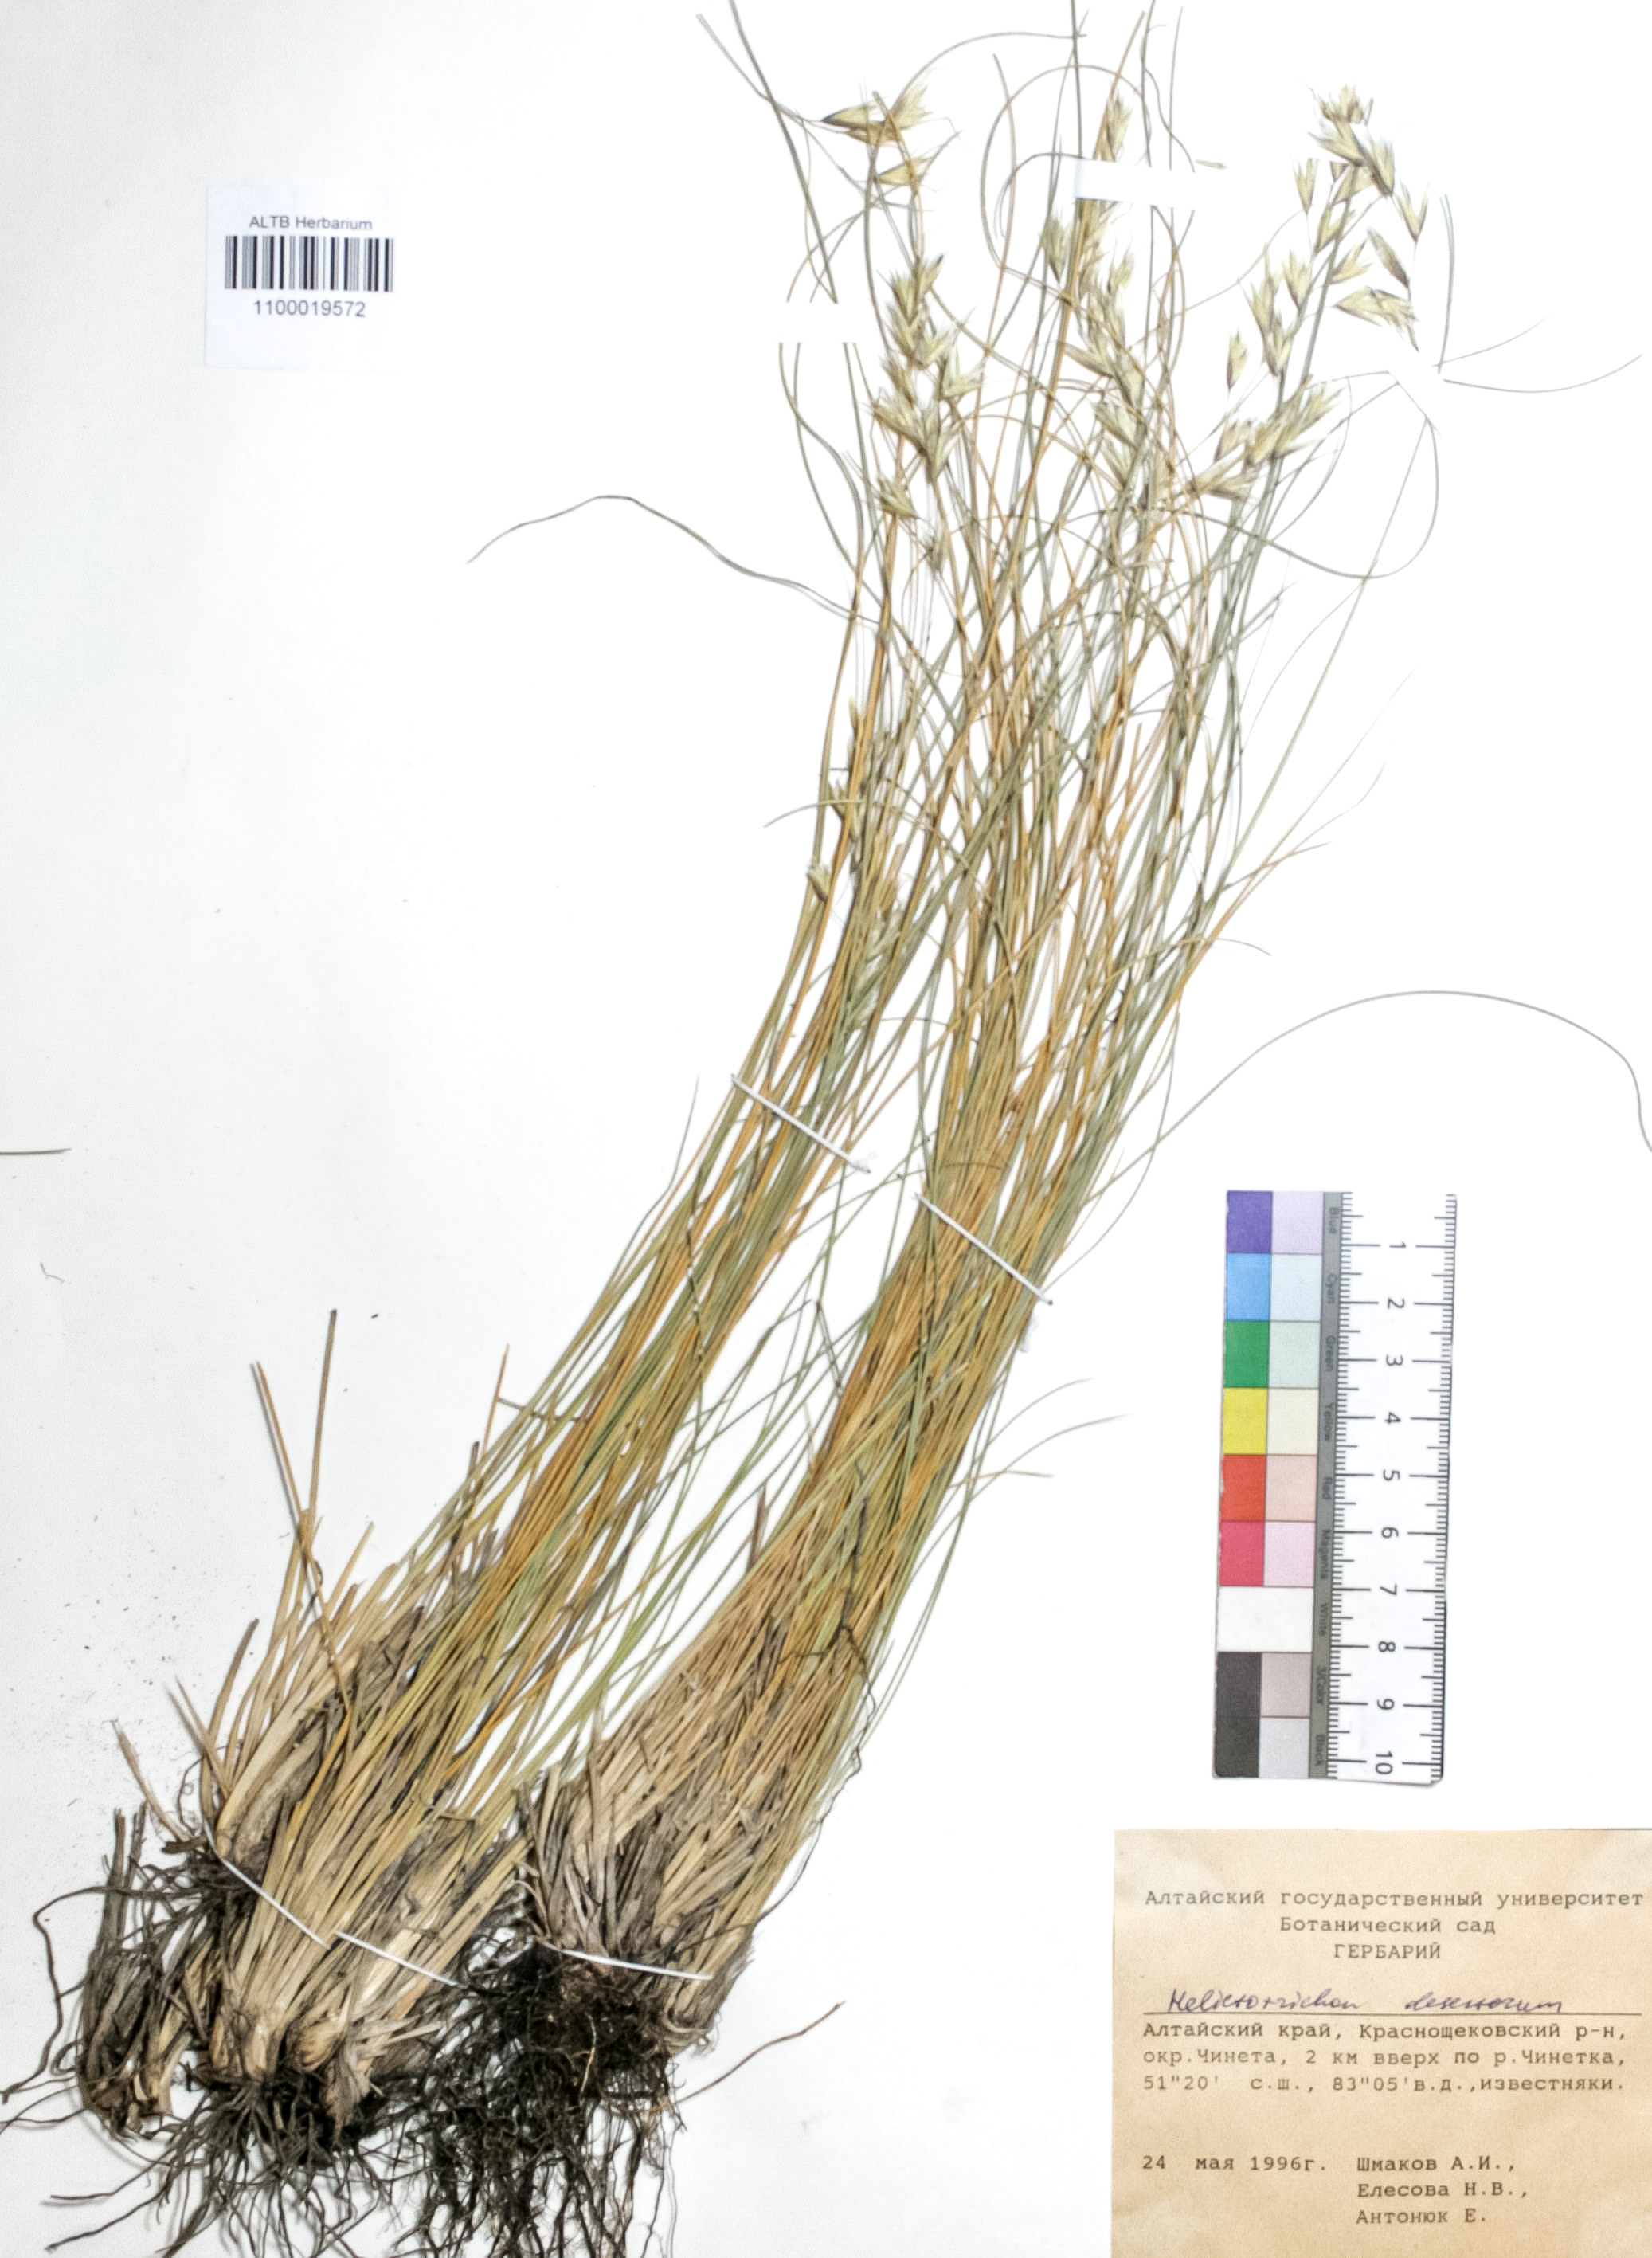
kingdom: Plantae
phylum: Tracheophyta
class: Liliopsida
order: Poales
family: Poaceae
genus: Helictotrichon
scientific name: Helictotrichon desertorum
